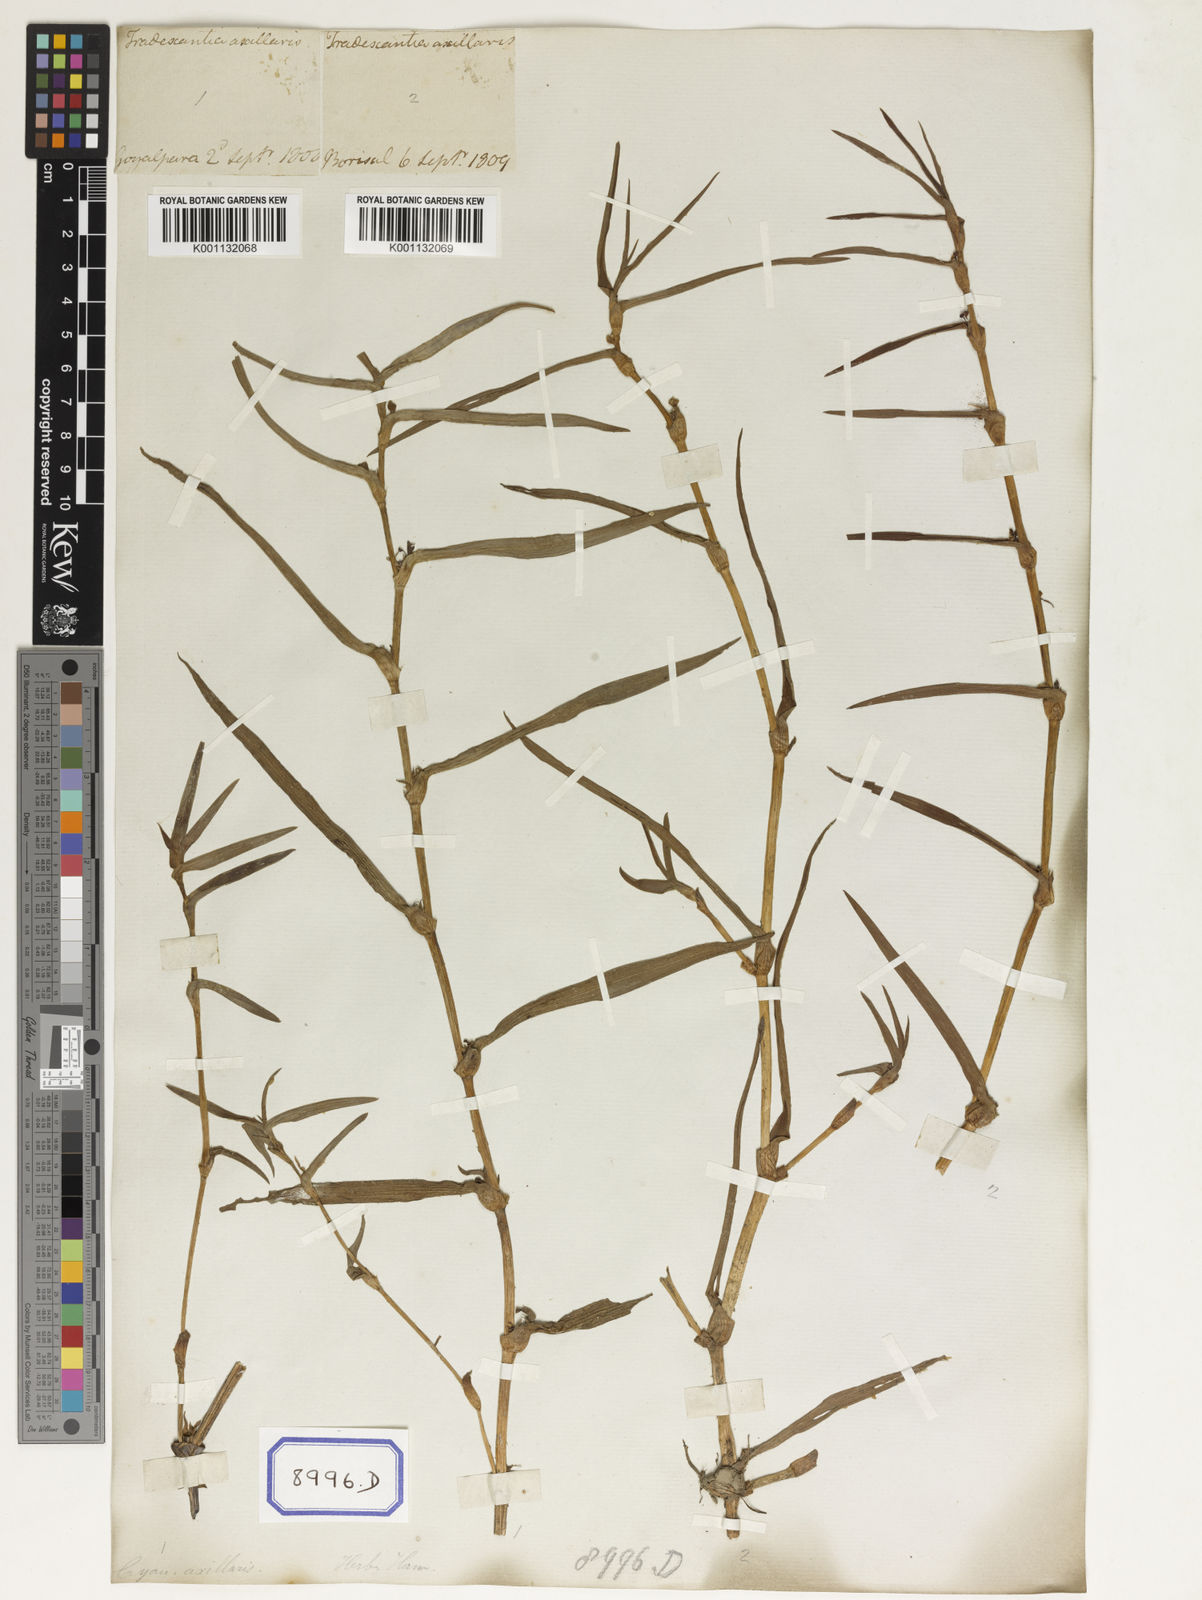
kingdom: Plantae
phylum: Tracheophyta
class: Liliopsida
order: Commelinales
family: Commelinaceae
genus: Cyanotis
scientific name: Cyanotis
